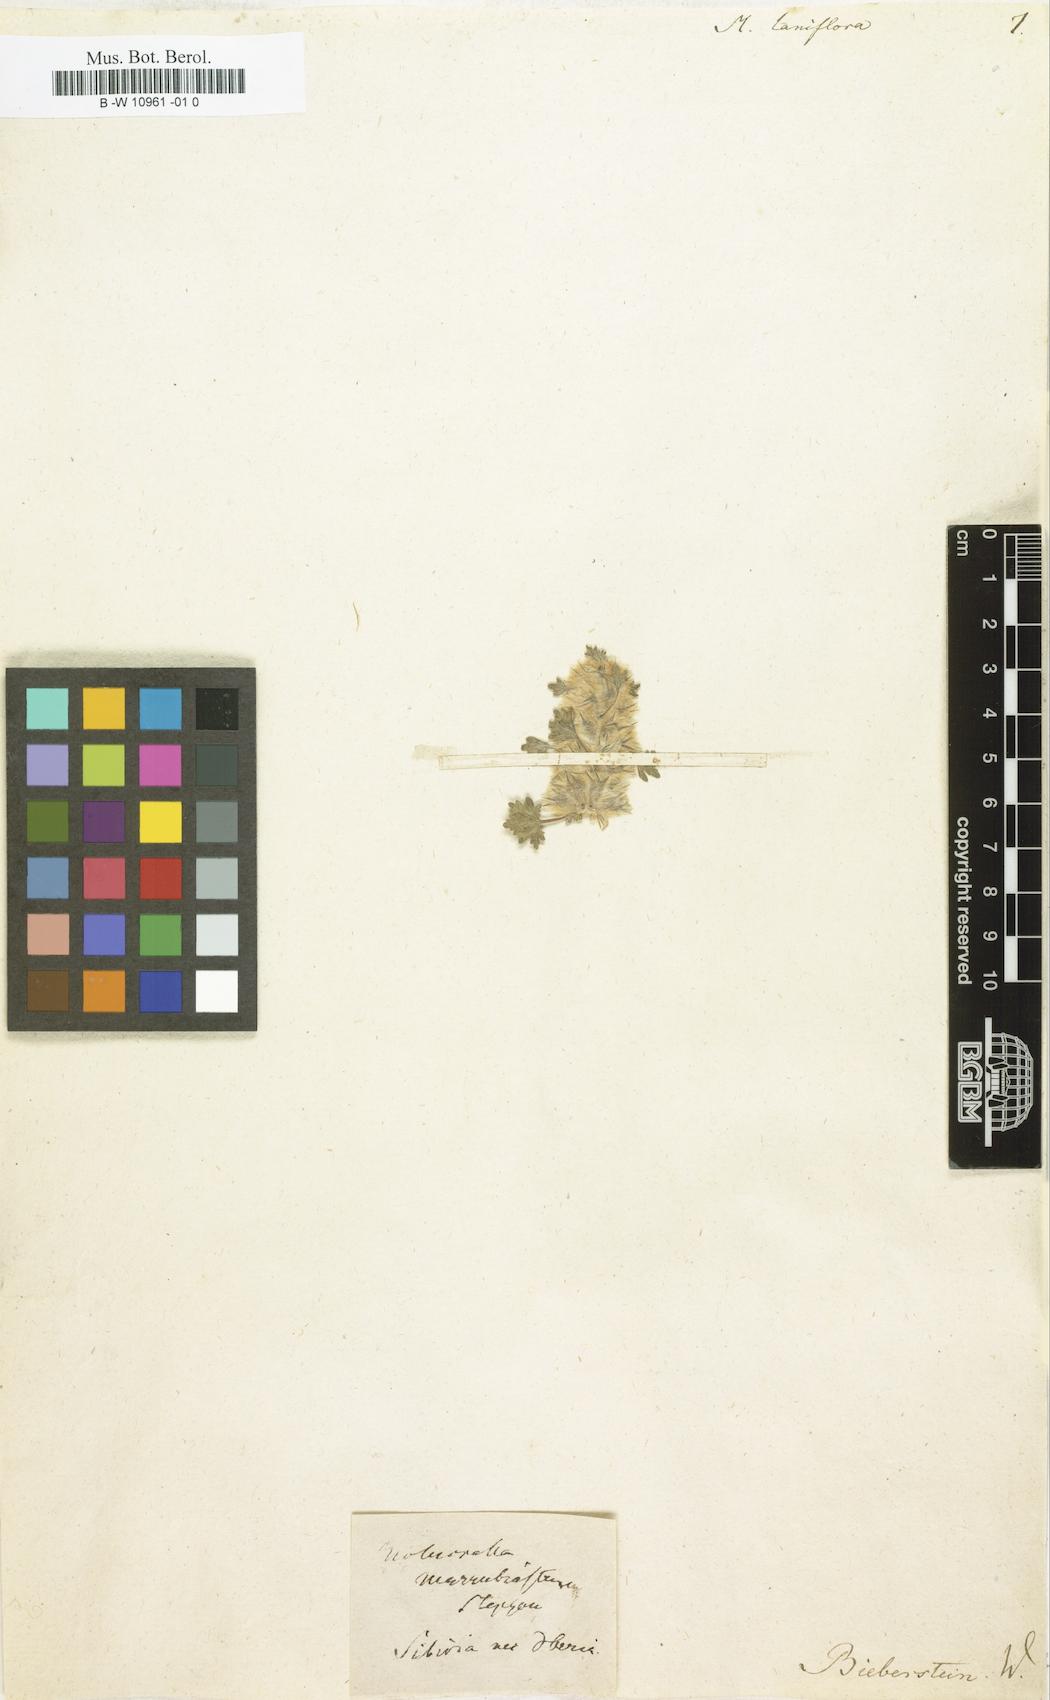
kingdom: Plantae
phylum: Tracheophyta
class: Magnoliopsida
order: Lamiales
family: Lamiaceae
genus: Lagopsis
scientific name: Lagopsis marrubiastrum
